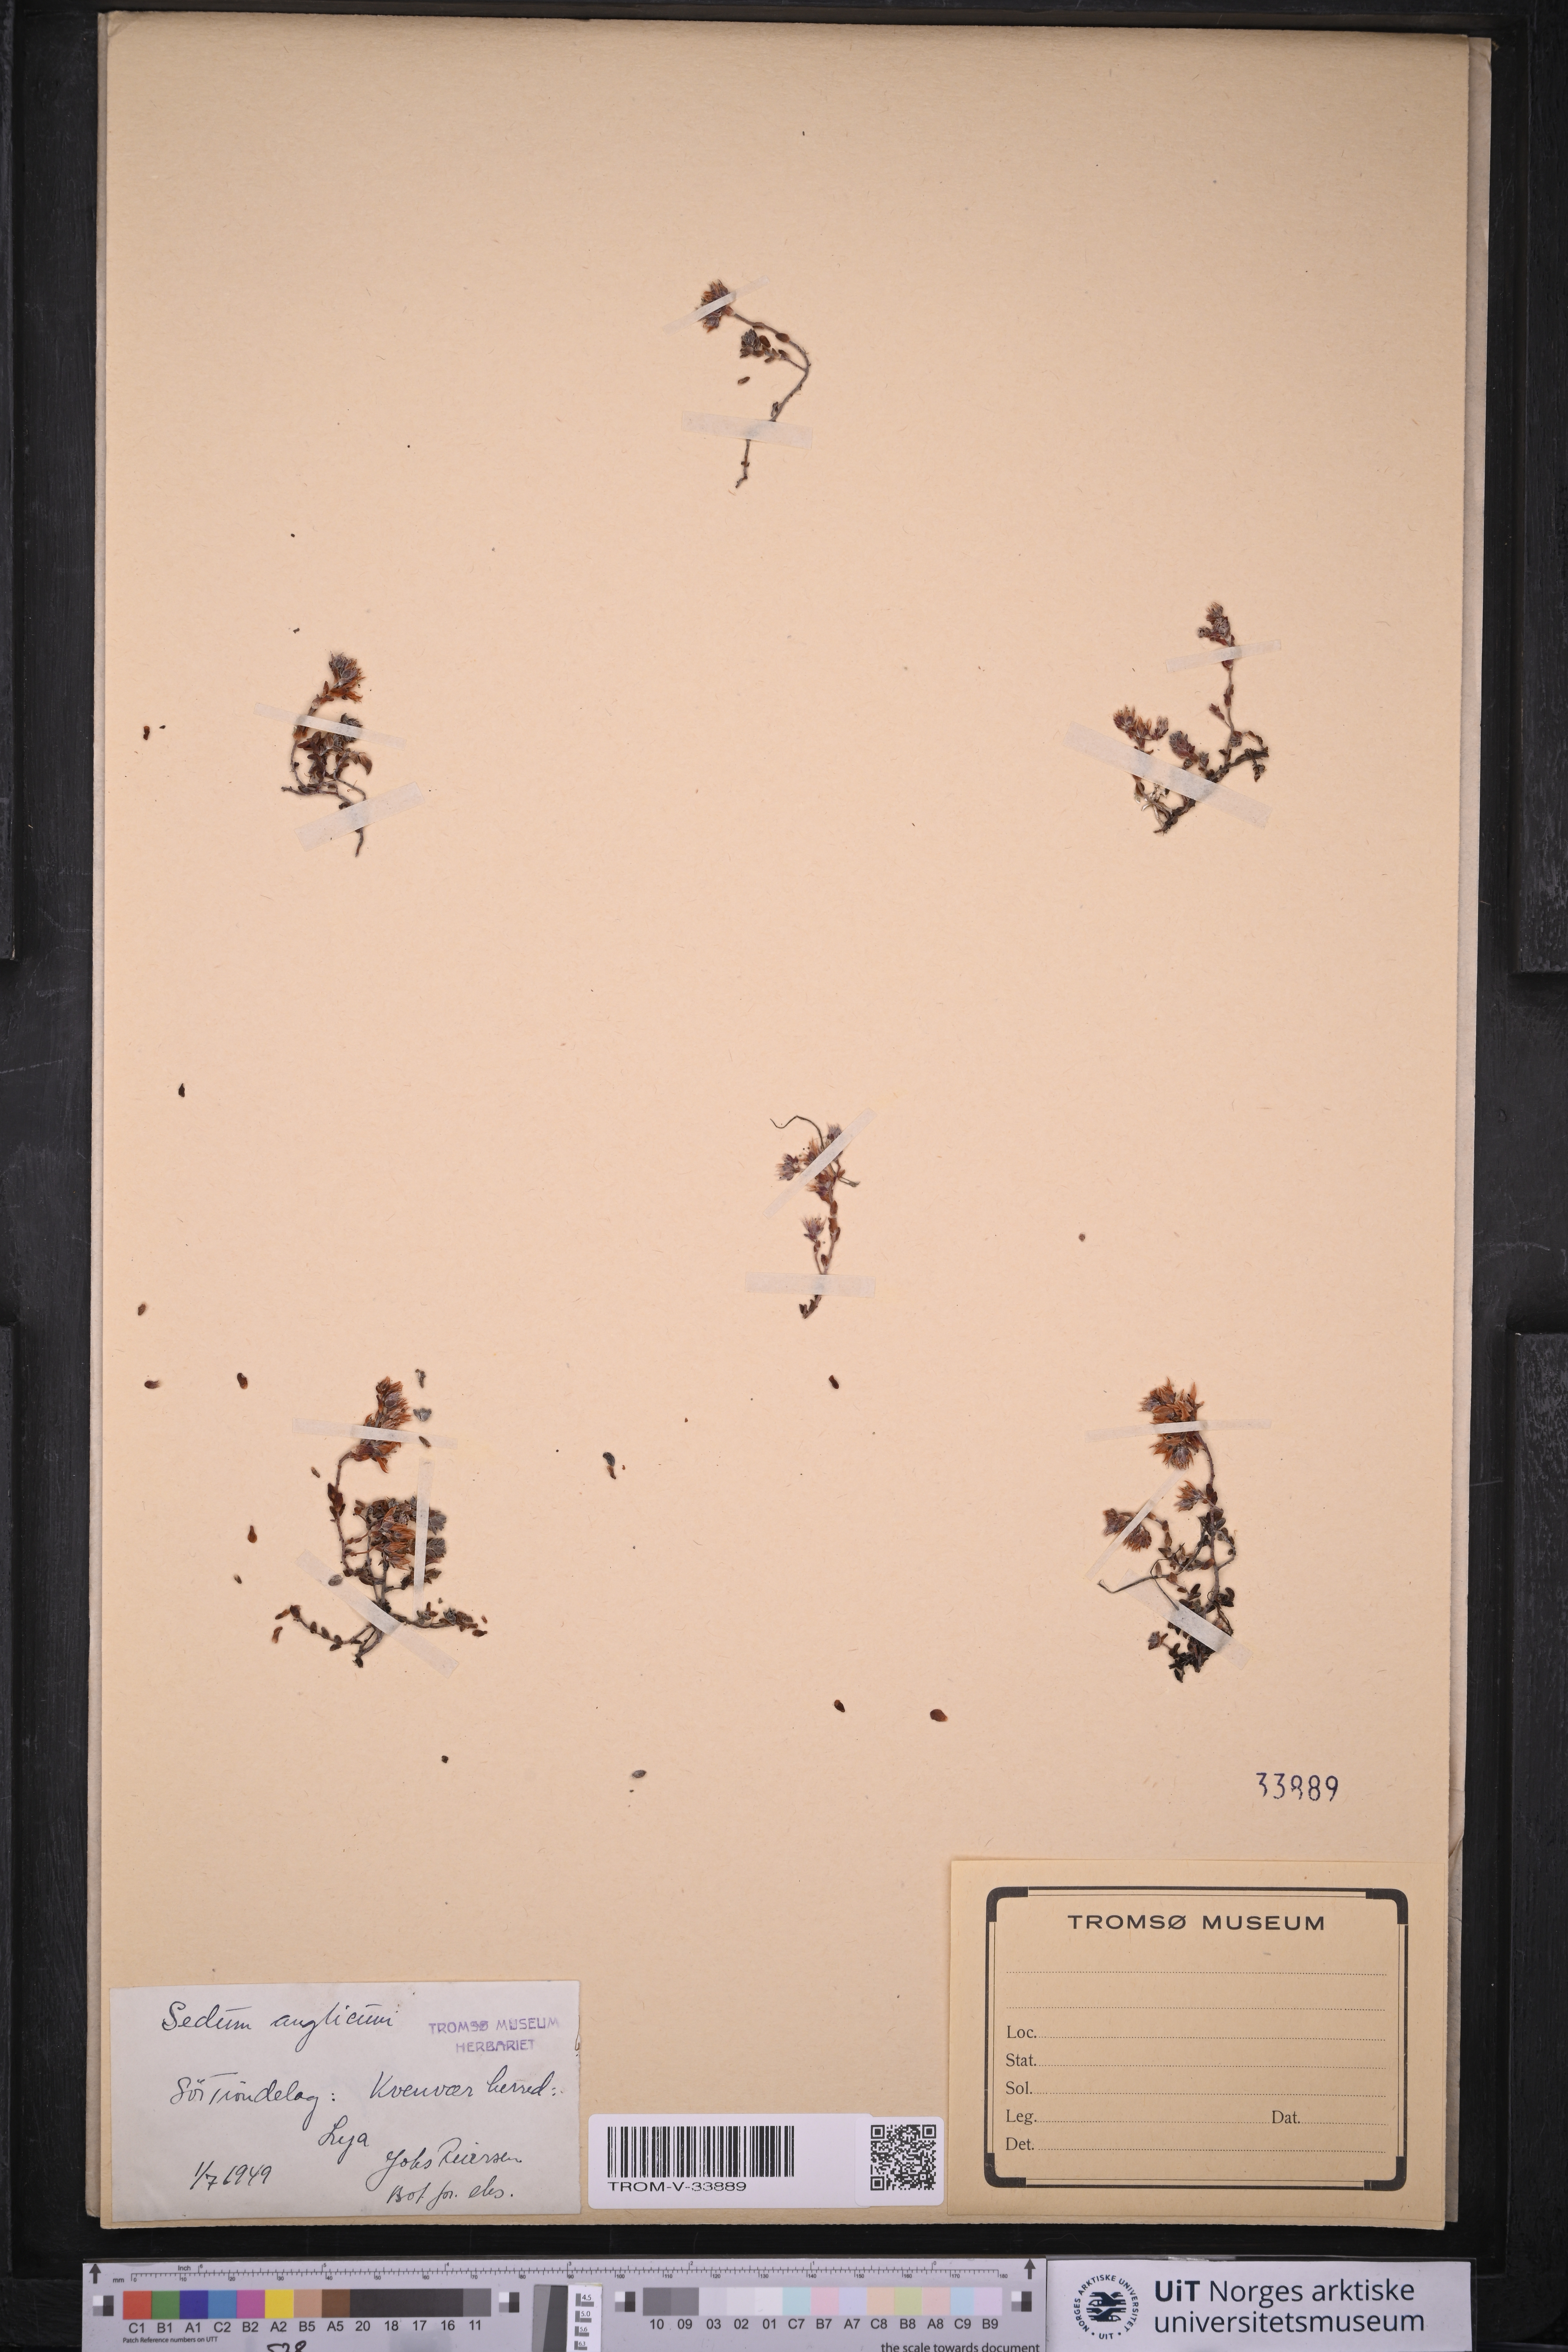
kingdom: Plantae
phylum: Tracheophyta
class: Magnoliopsida
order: Saxifragales
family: Crassulaceae
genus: Sedum
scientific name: Sedum anglicum
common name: English stonecrop
